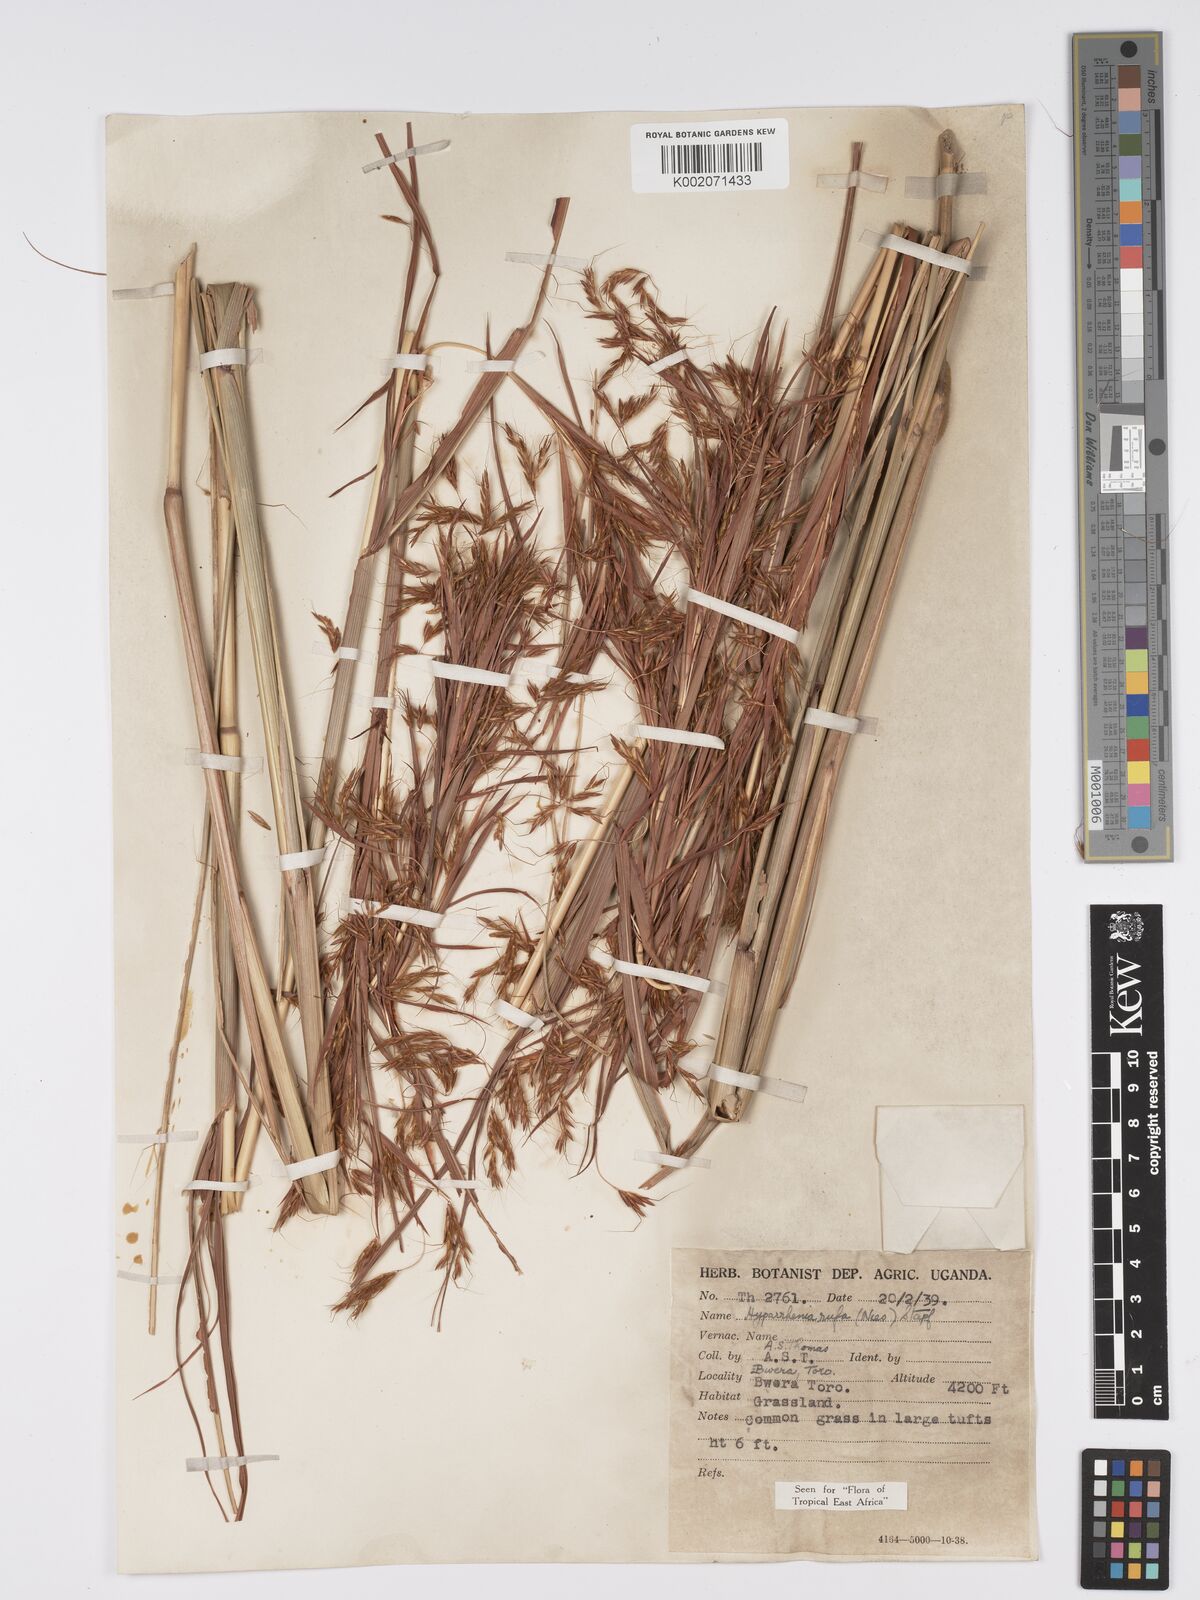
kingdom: Plantae
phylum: Tracheophyta
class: Liliopsida
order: Poales
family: Poaceae
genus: Hyparrhenia
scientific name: Hyparrhenia rufa
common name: Jaraguagrass
